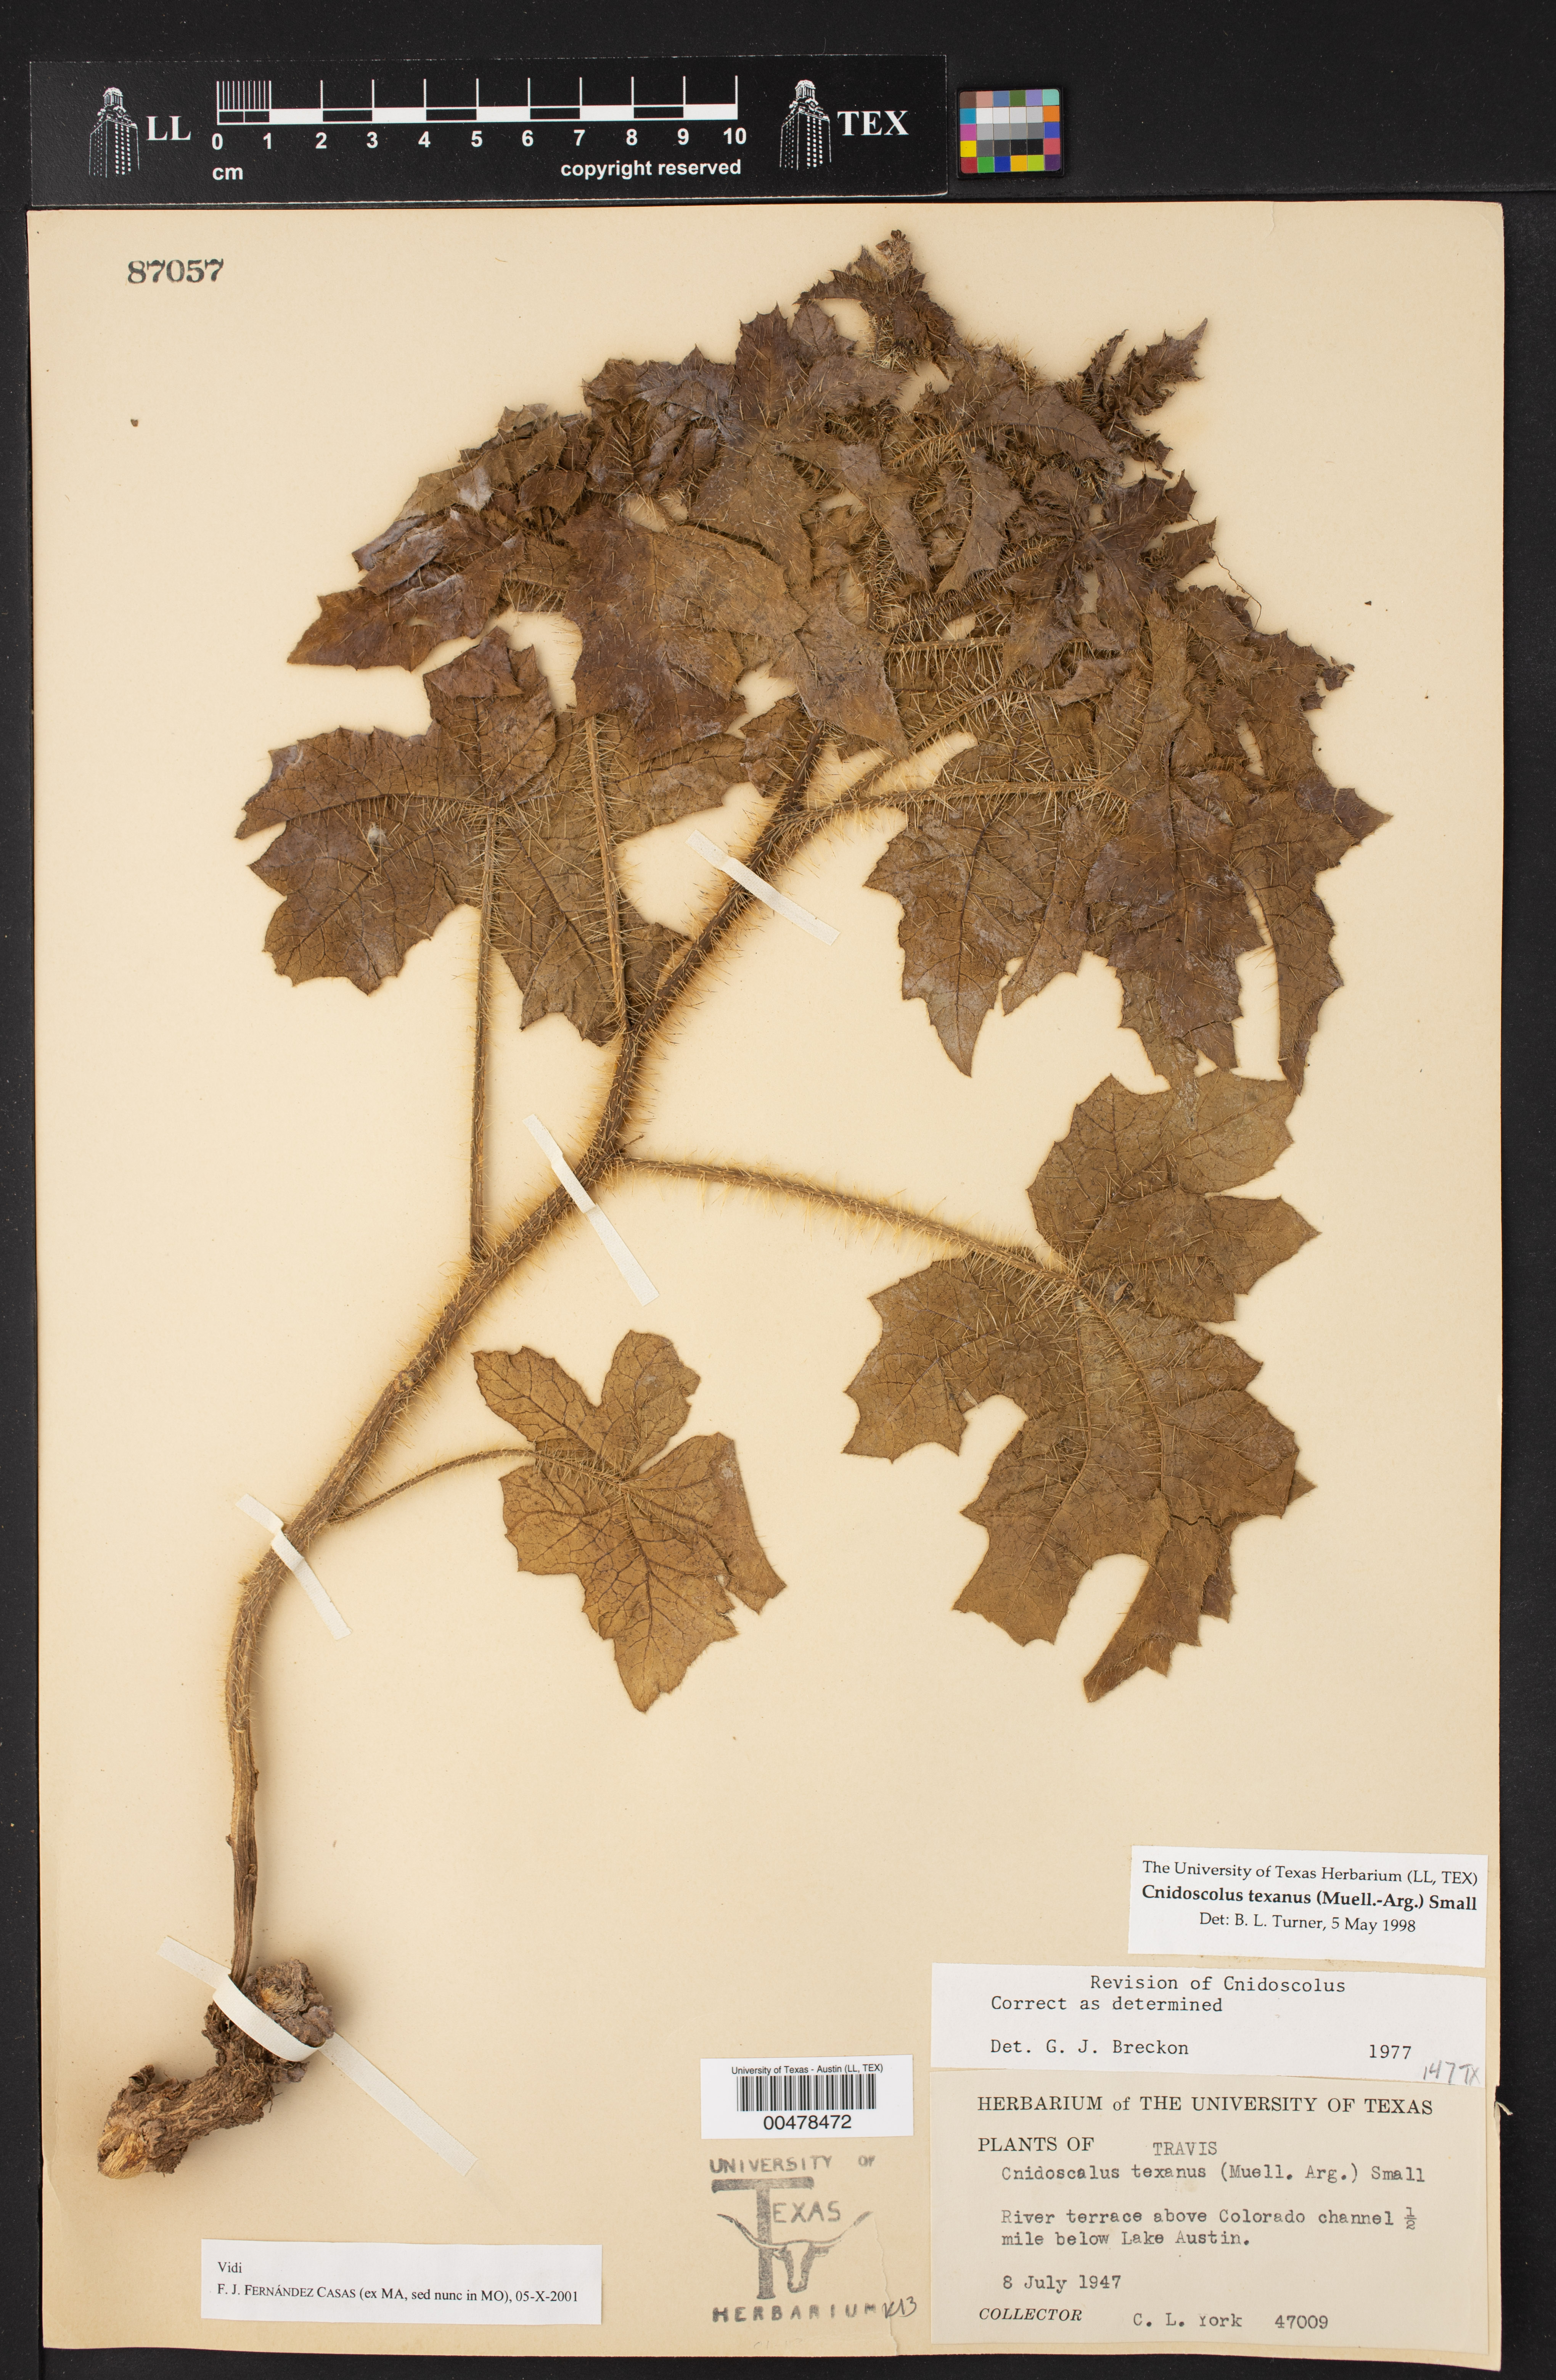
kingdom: Plantae
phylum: Tracheophyta
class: Magnoliopsida
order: Malpighiales
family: Euphorbiaceae
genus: Cnidoscolus
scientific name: Cnidoscolus texanus
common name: Texas bull-nettle
